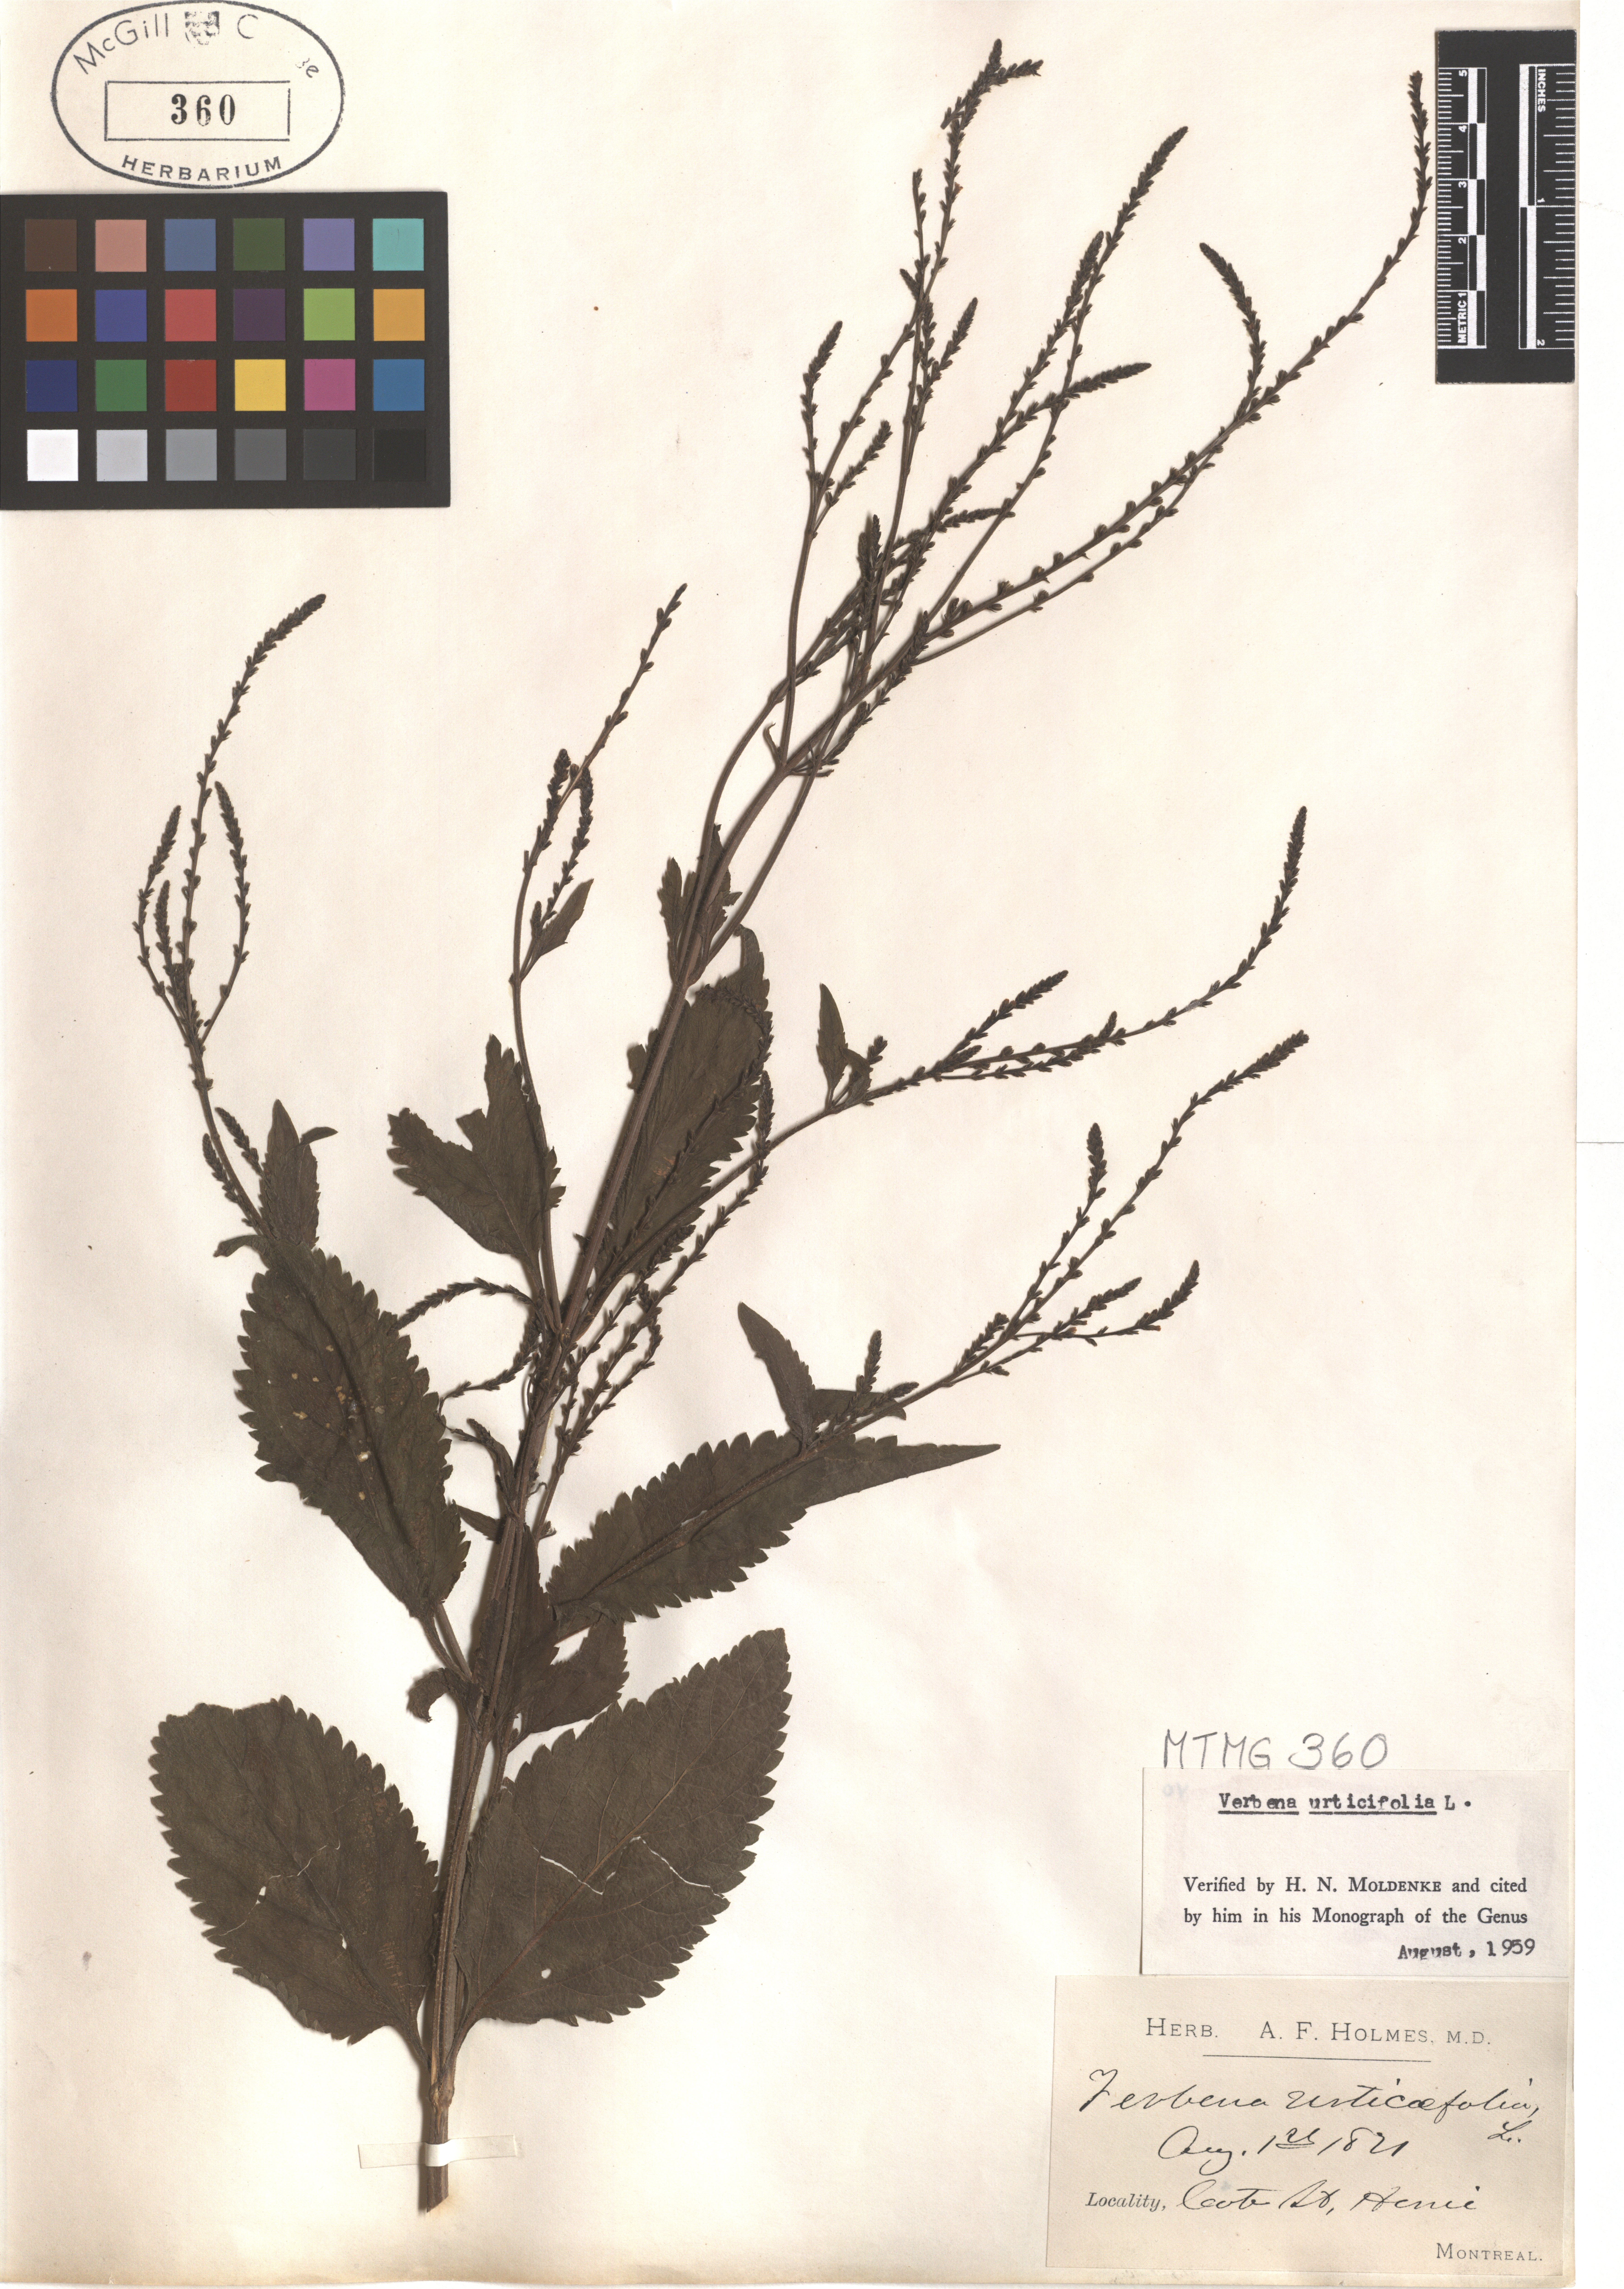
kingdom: Plantae
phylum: Tracheophyta
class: Magnoliopsida
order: Lamiales
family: Verbenaceae
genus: Verbena
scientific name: Verbena urticifolia
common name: Nettle-leaved vervain
